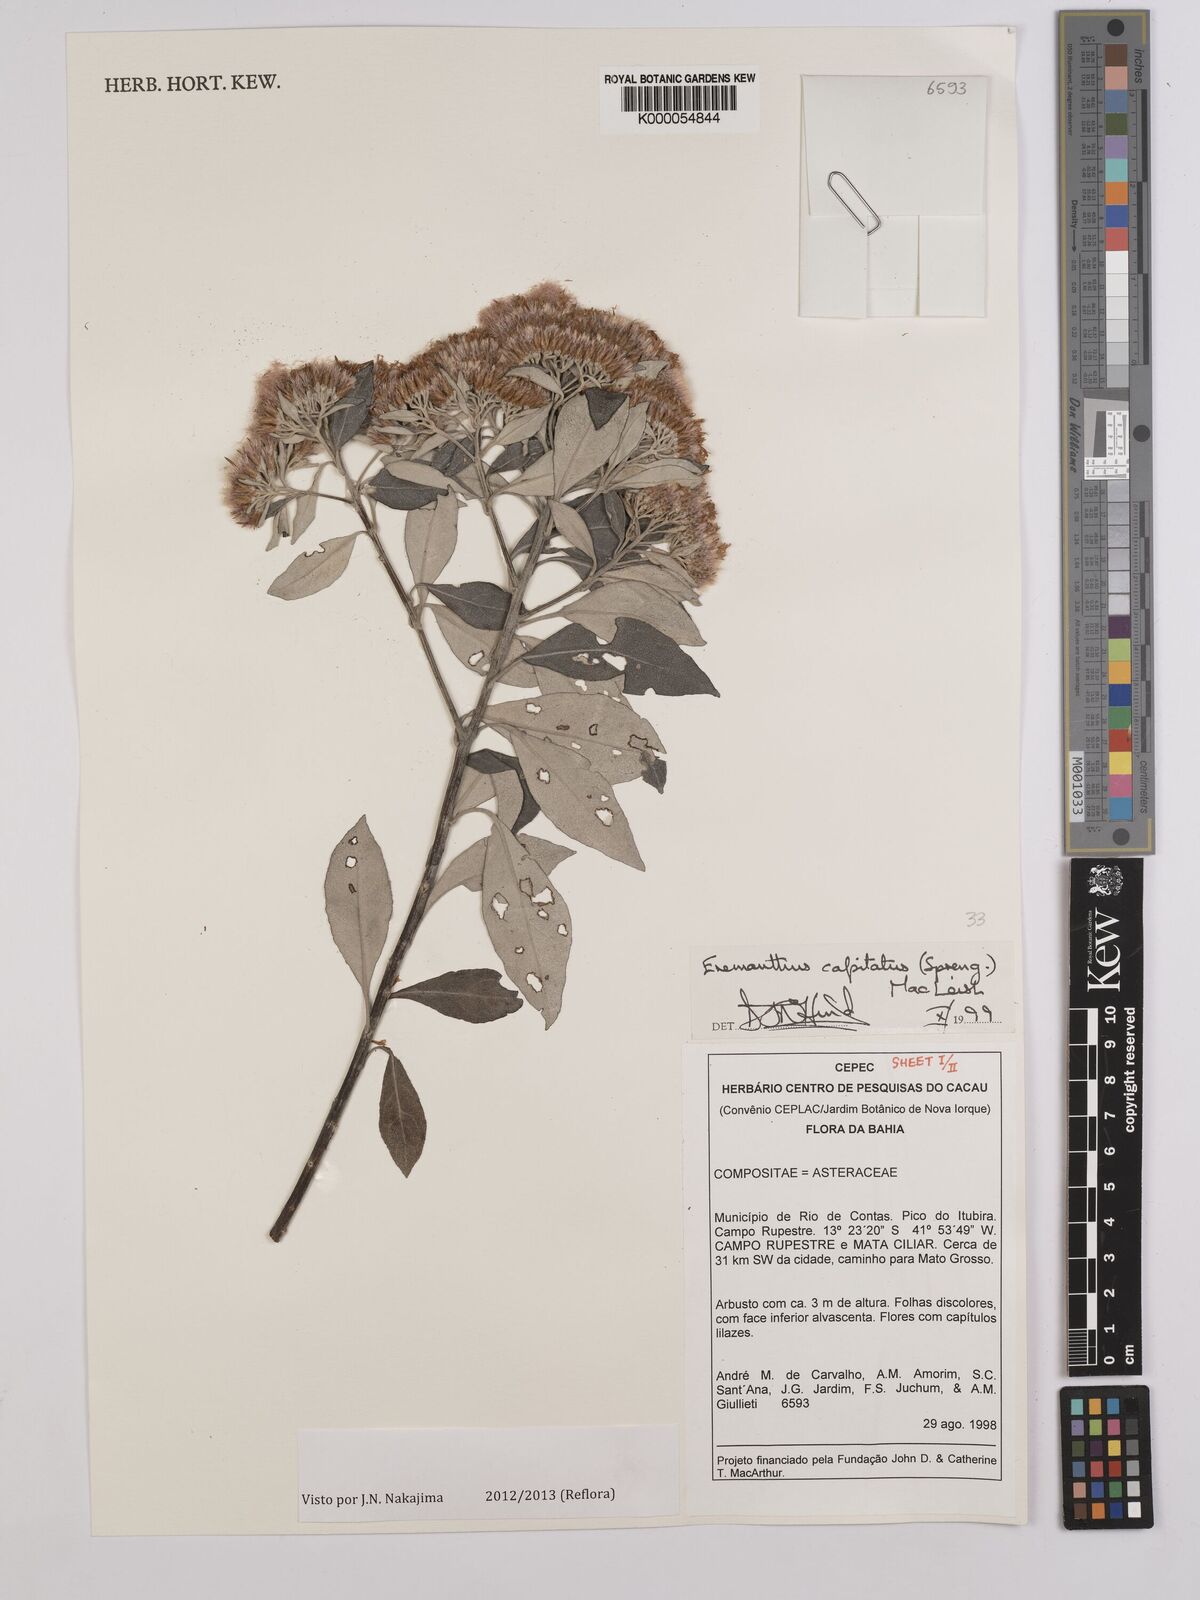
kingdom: Plantae
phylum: Tracheophyta
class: Magnoliopsida
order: Asterales
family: Asteraceae
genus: Eremanthus
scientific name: Eremanthus capitatus
